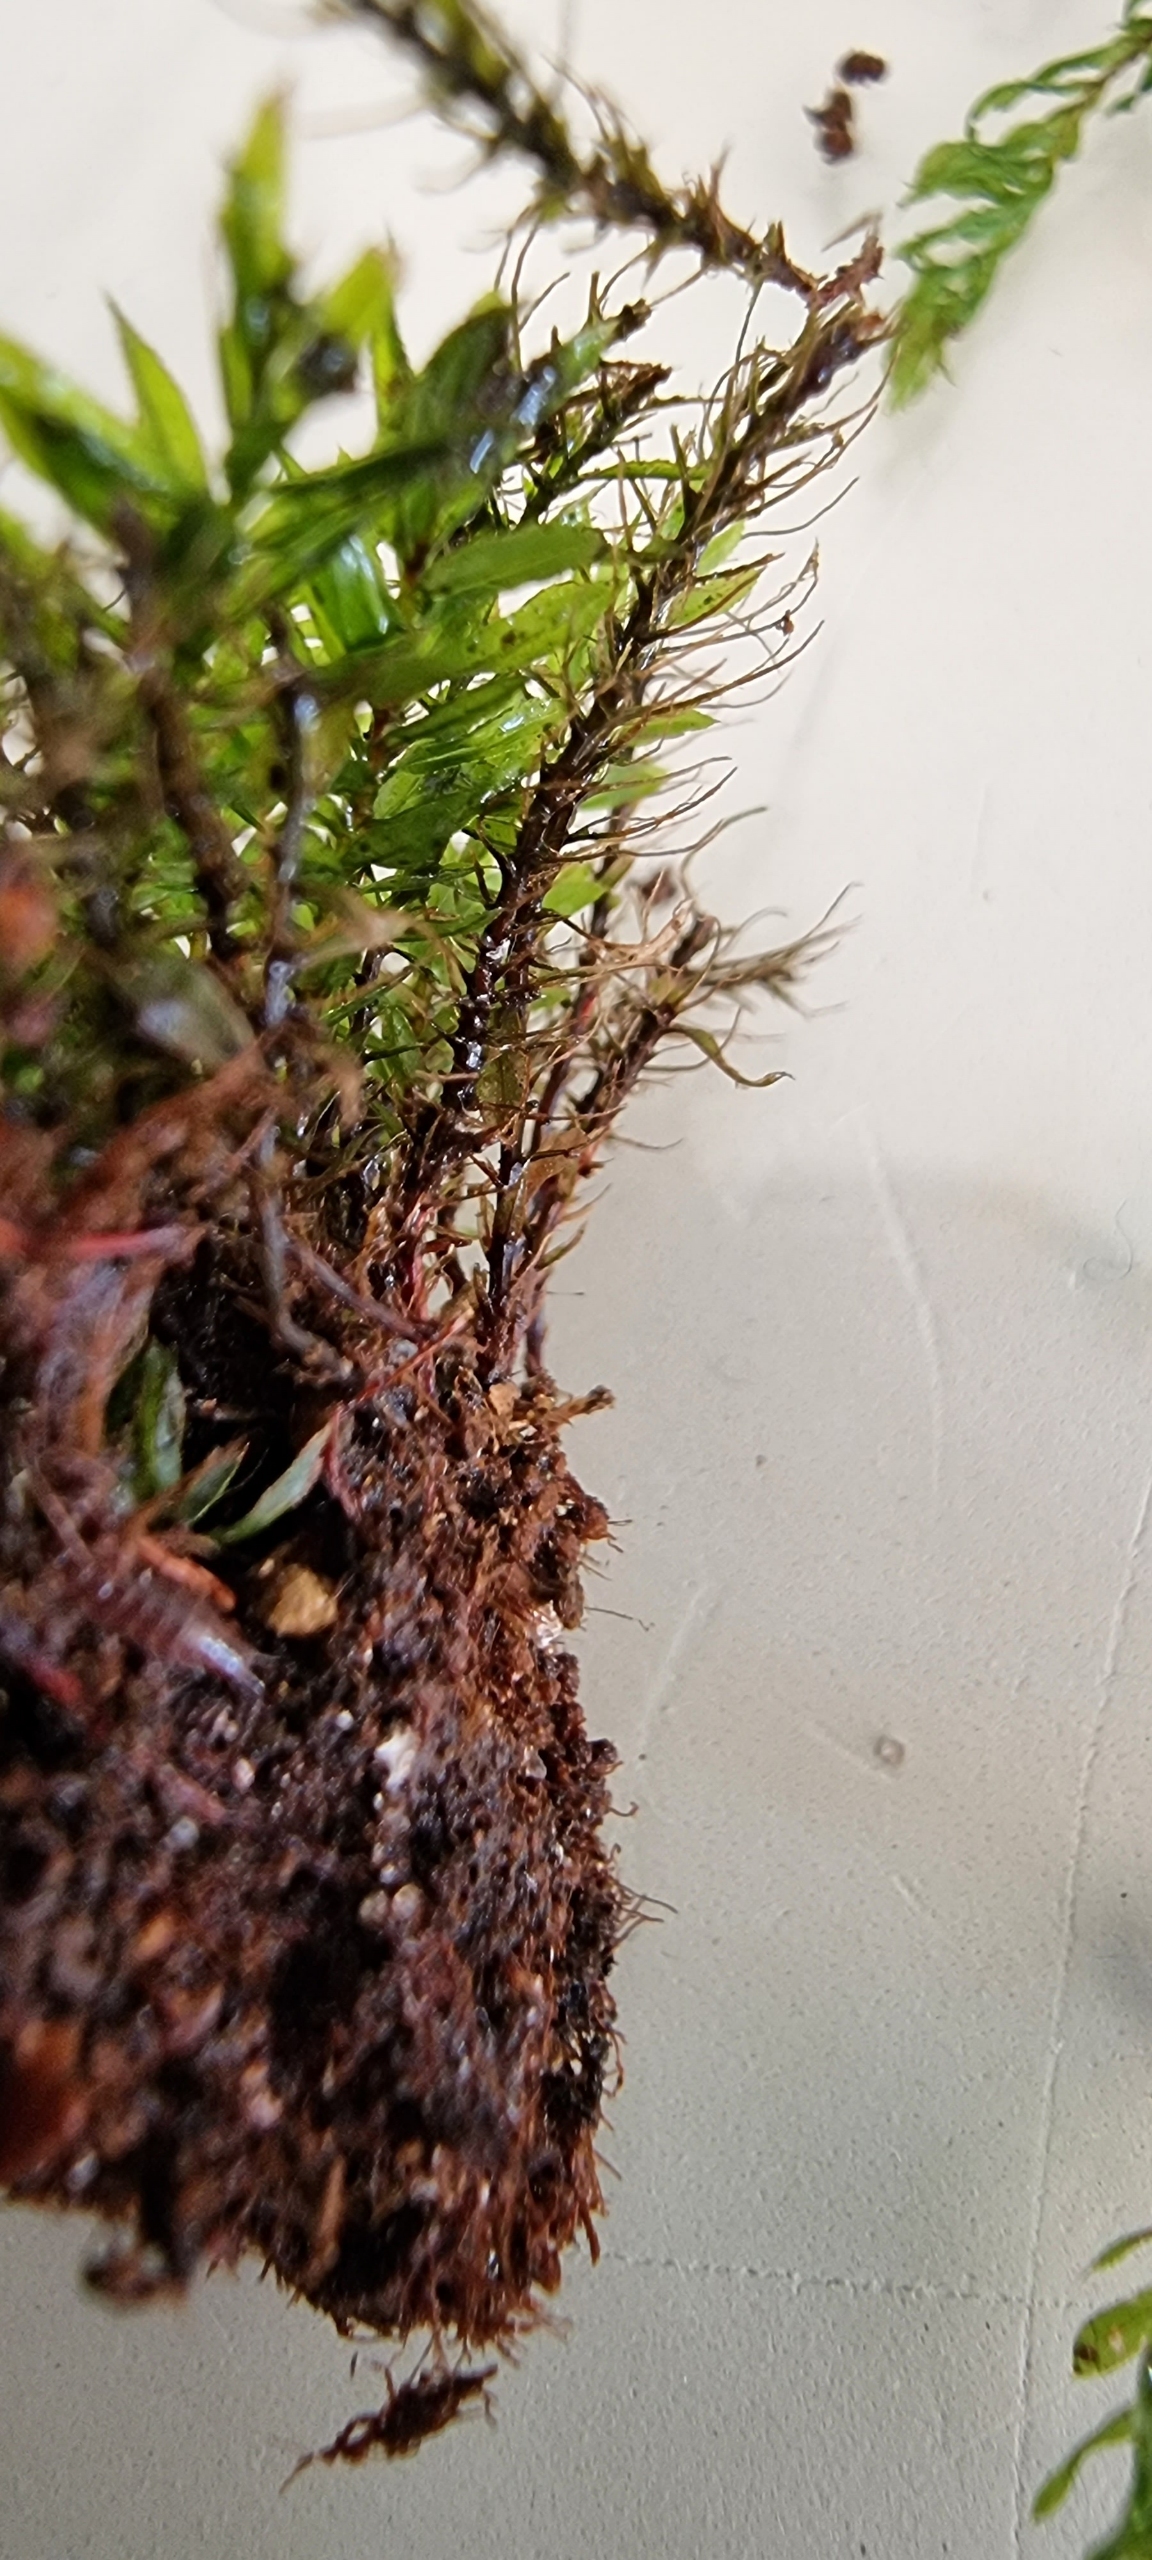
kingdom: Plantae
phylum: Bryophyta
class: Bryopsida
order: Bryales
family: Mniaceae
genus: Mnium
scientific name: Mnium hornum
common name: Brunfiltet stjernemos
